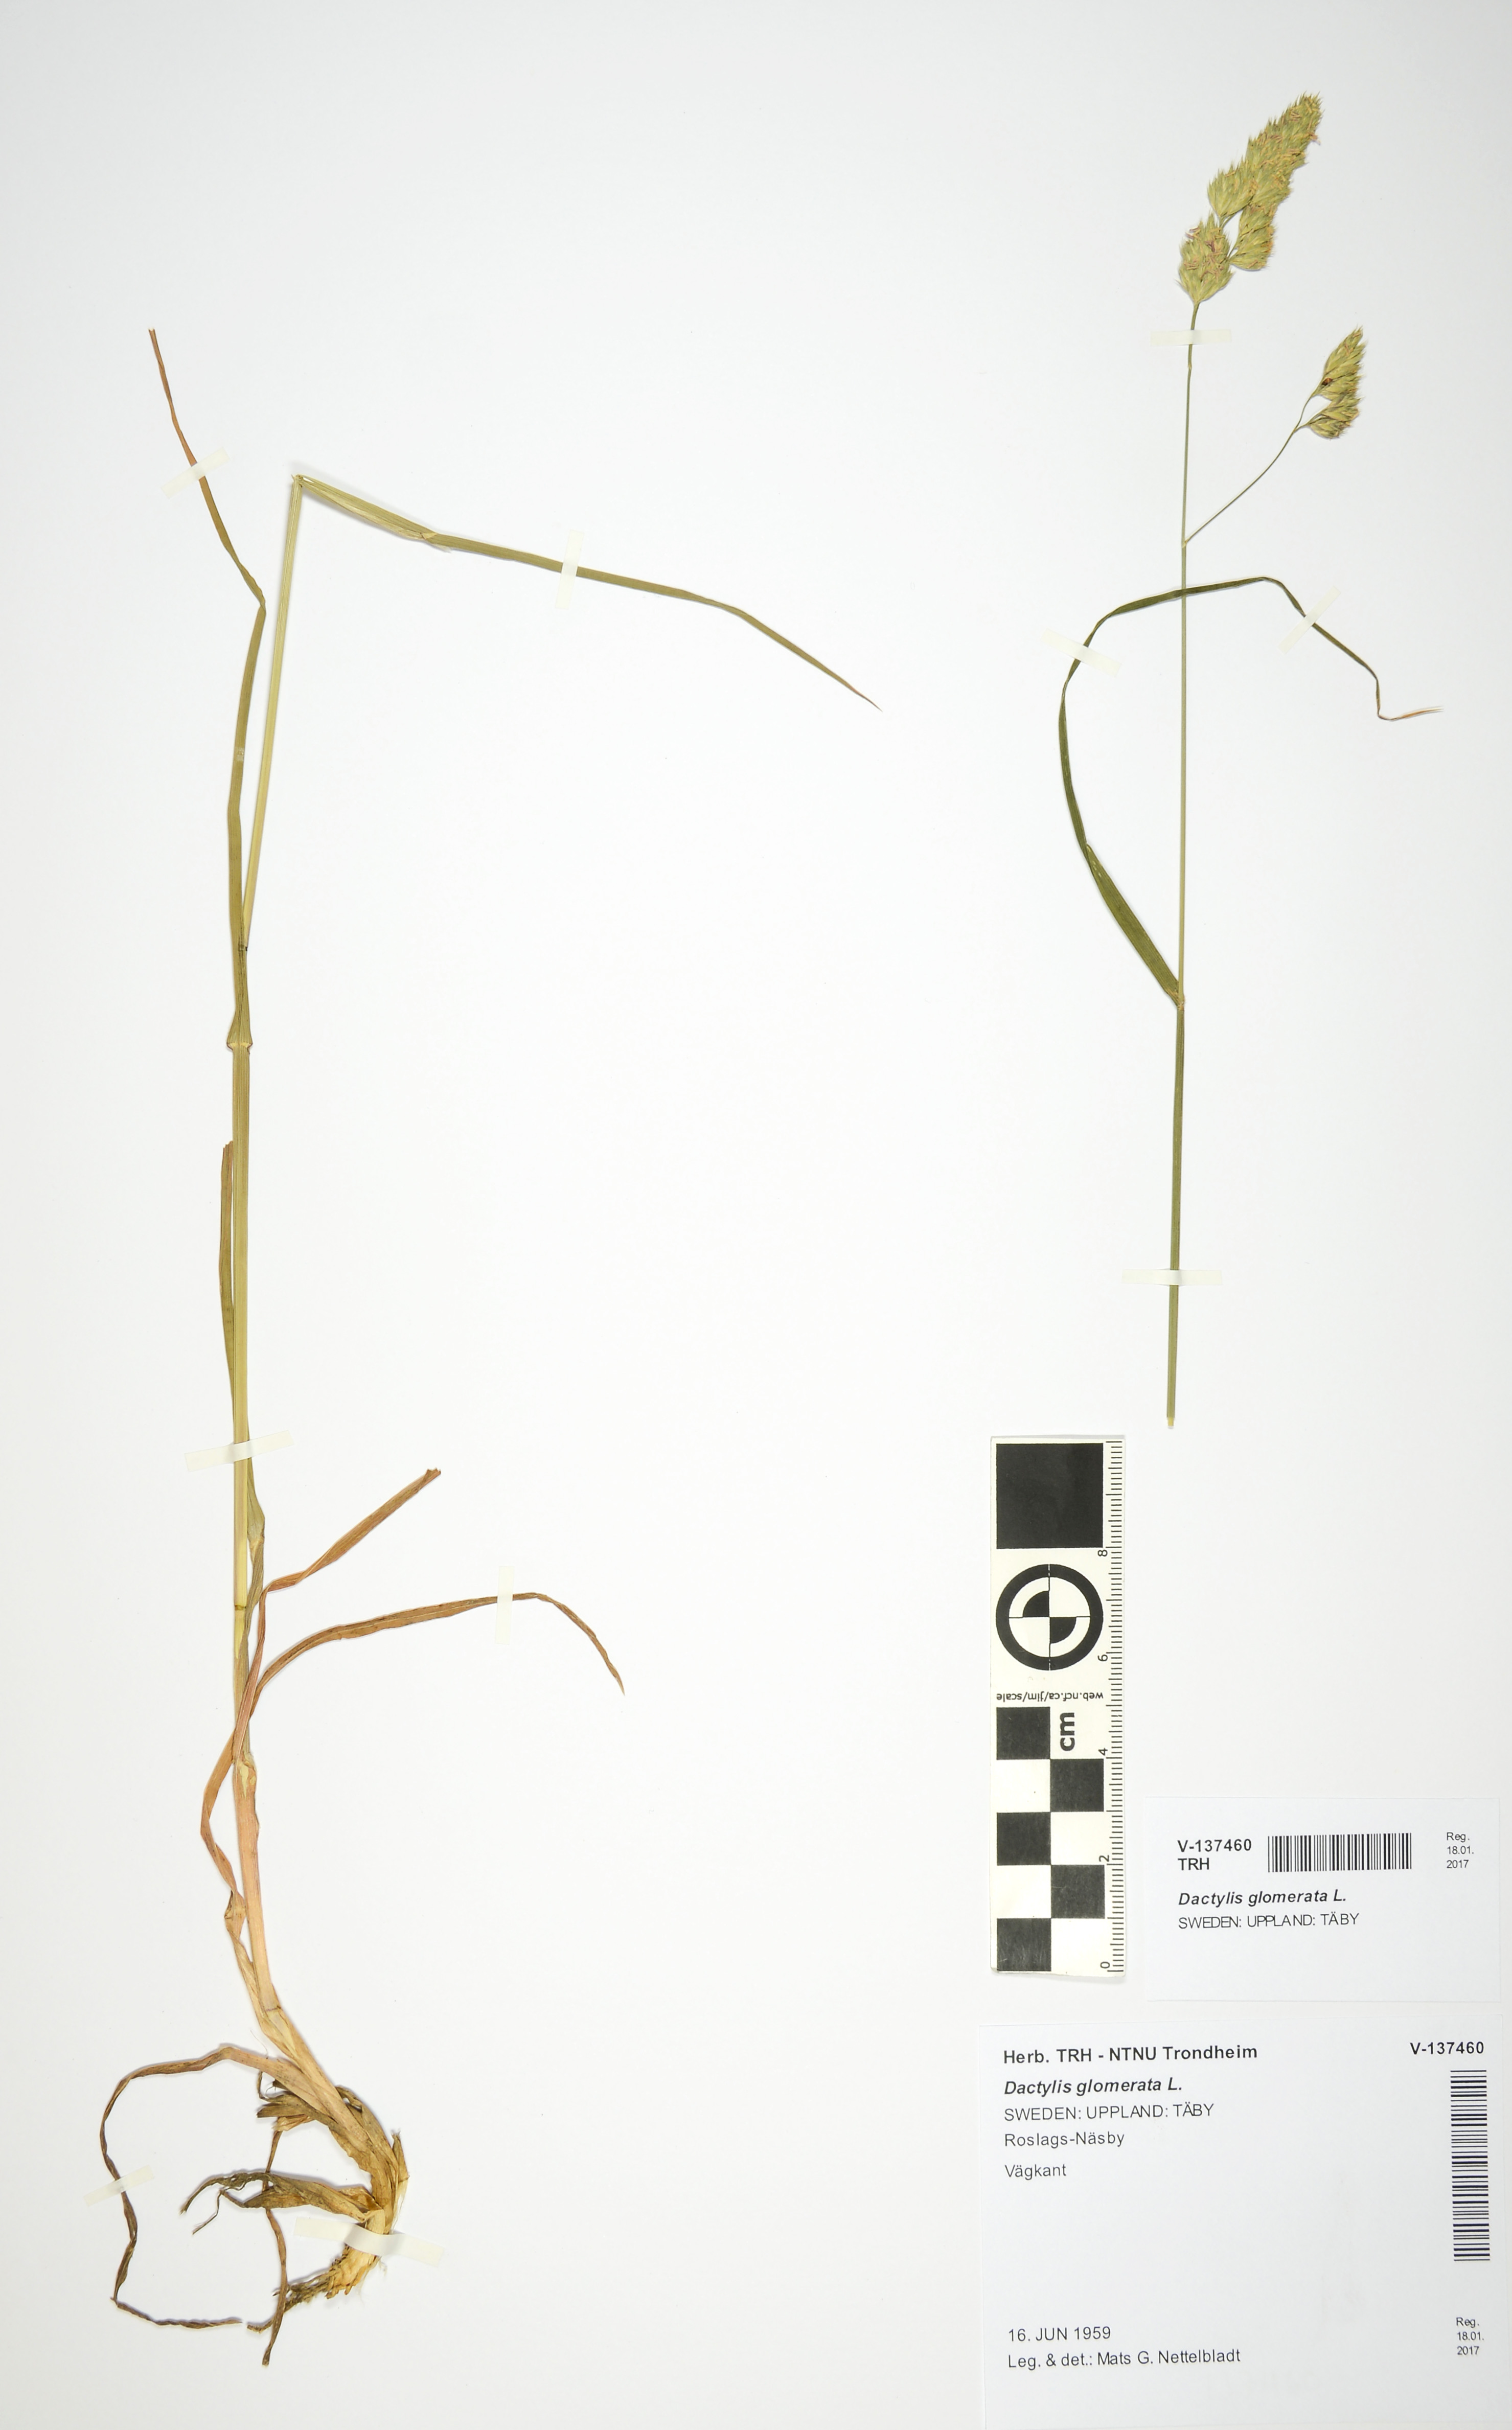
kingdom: Plantae
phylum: Tracheophyta
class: Liliopsida
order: Poales
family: Poaceae
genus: Dactylis
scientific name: Dactylis glomerata
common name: Orchardgrass
